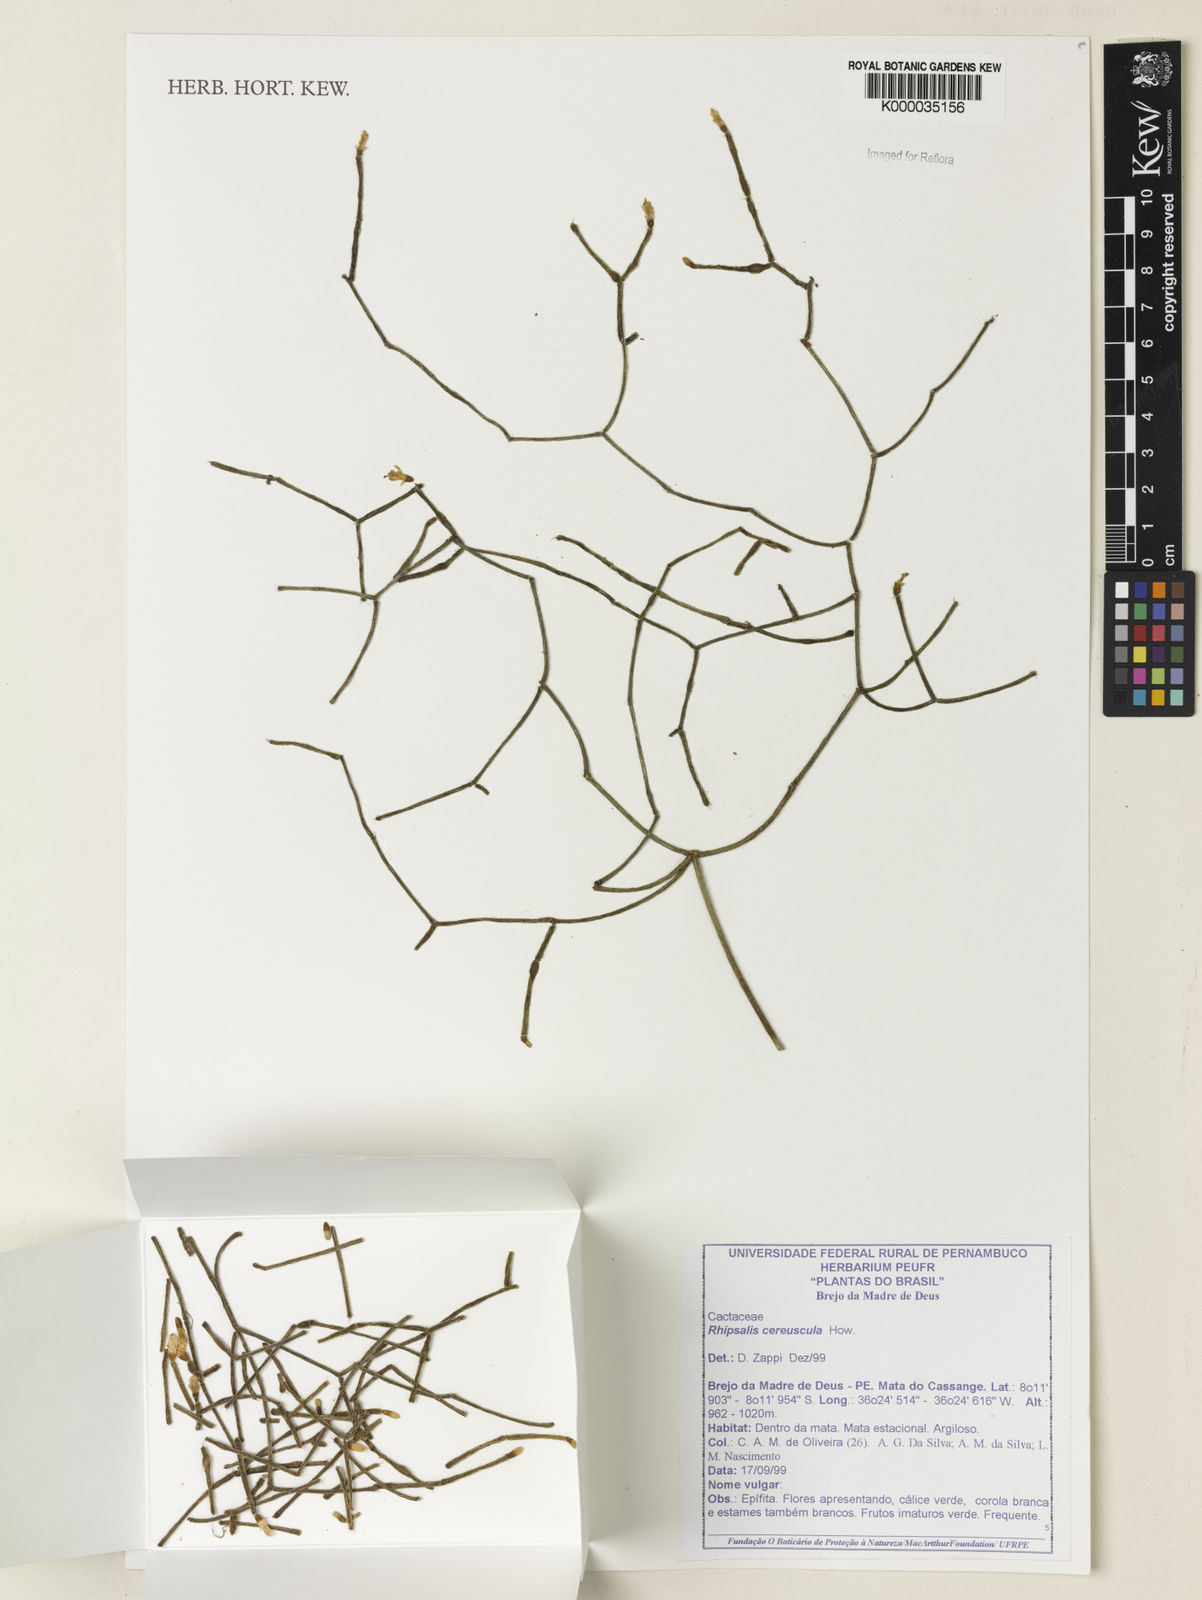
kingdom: Plantae
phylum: Tracheophyta
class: Magnoliopsida
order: Caryophyllales
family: Cactaceae
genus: Rhipsalis
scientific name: Rhipsalis
